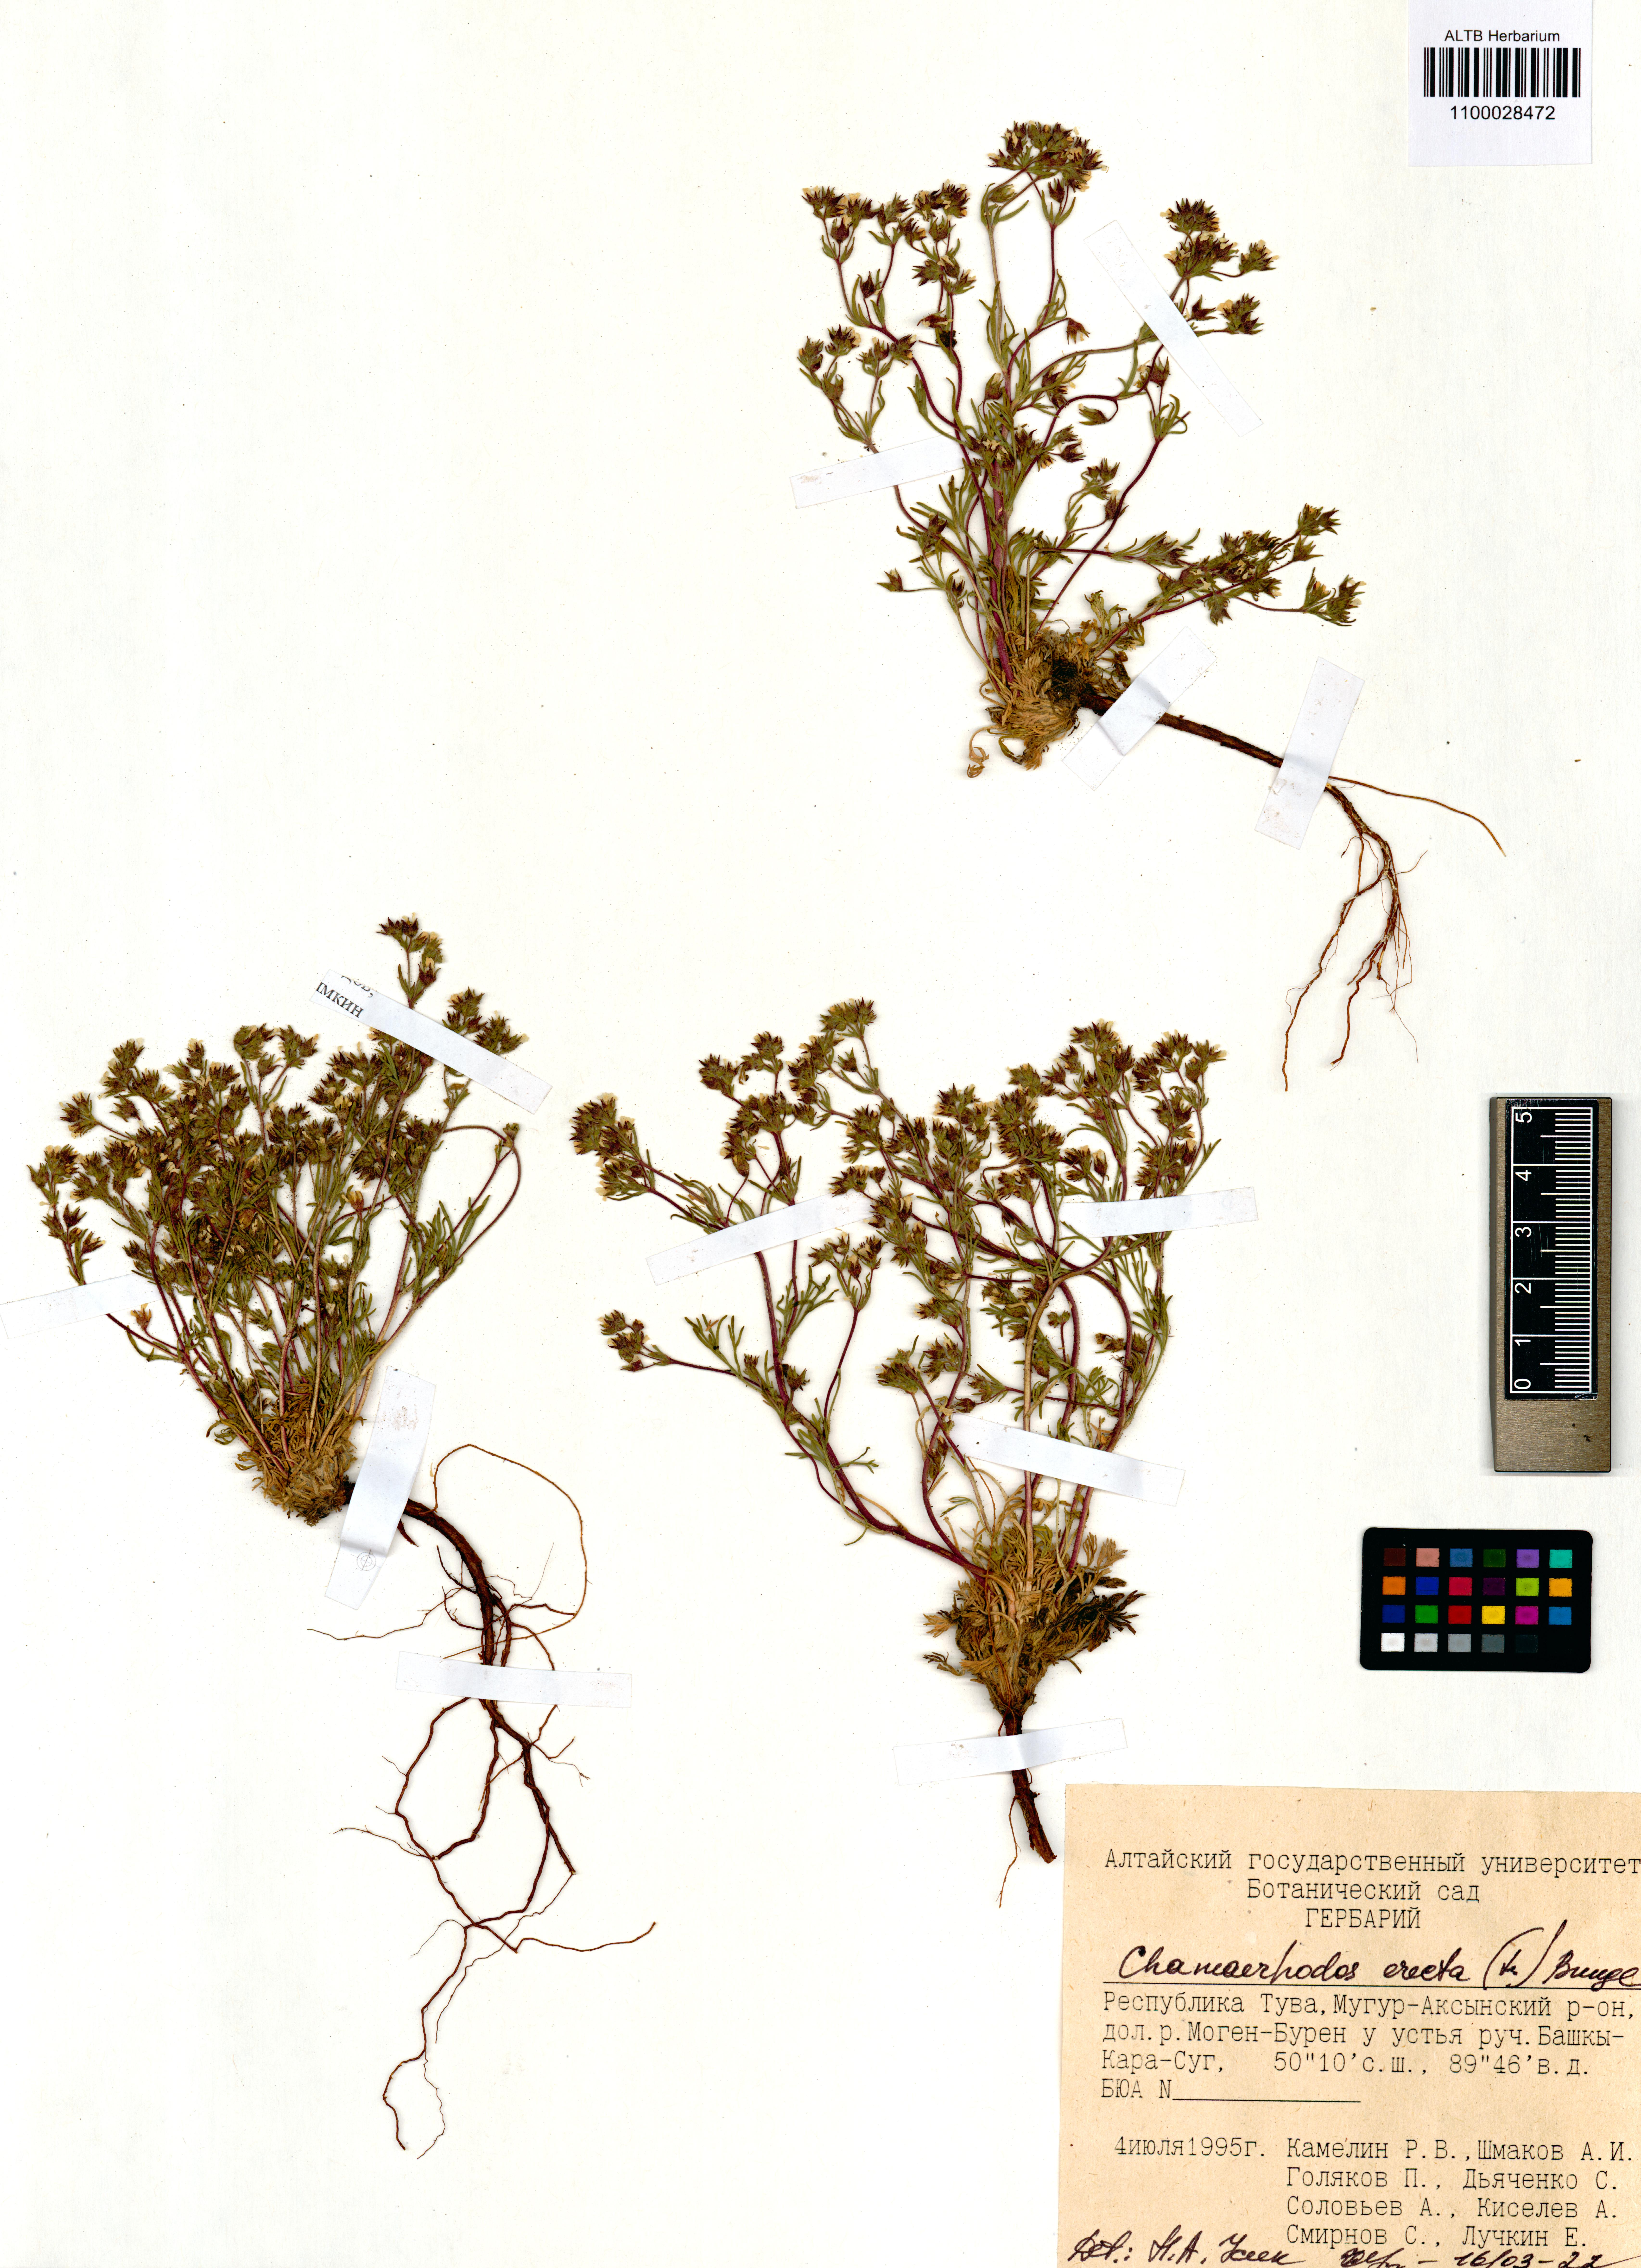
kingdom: Plantae
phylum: Tracheophyta
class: Magnoliopsida
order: Rosales
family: Rosaceae
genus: Chamaerhodos
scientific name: Chamaerhodos erecta
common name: American chamaerhodos
